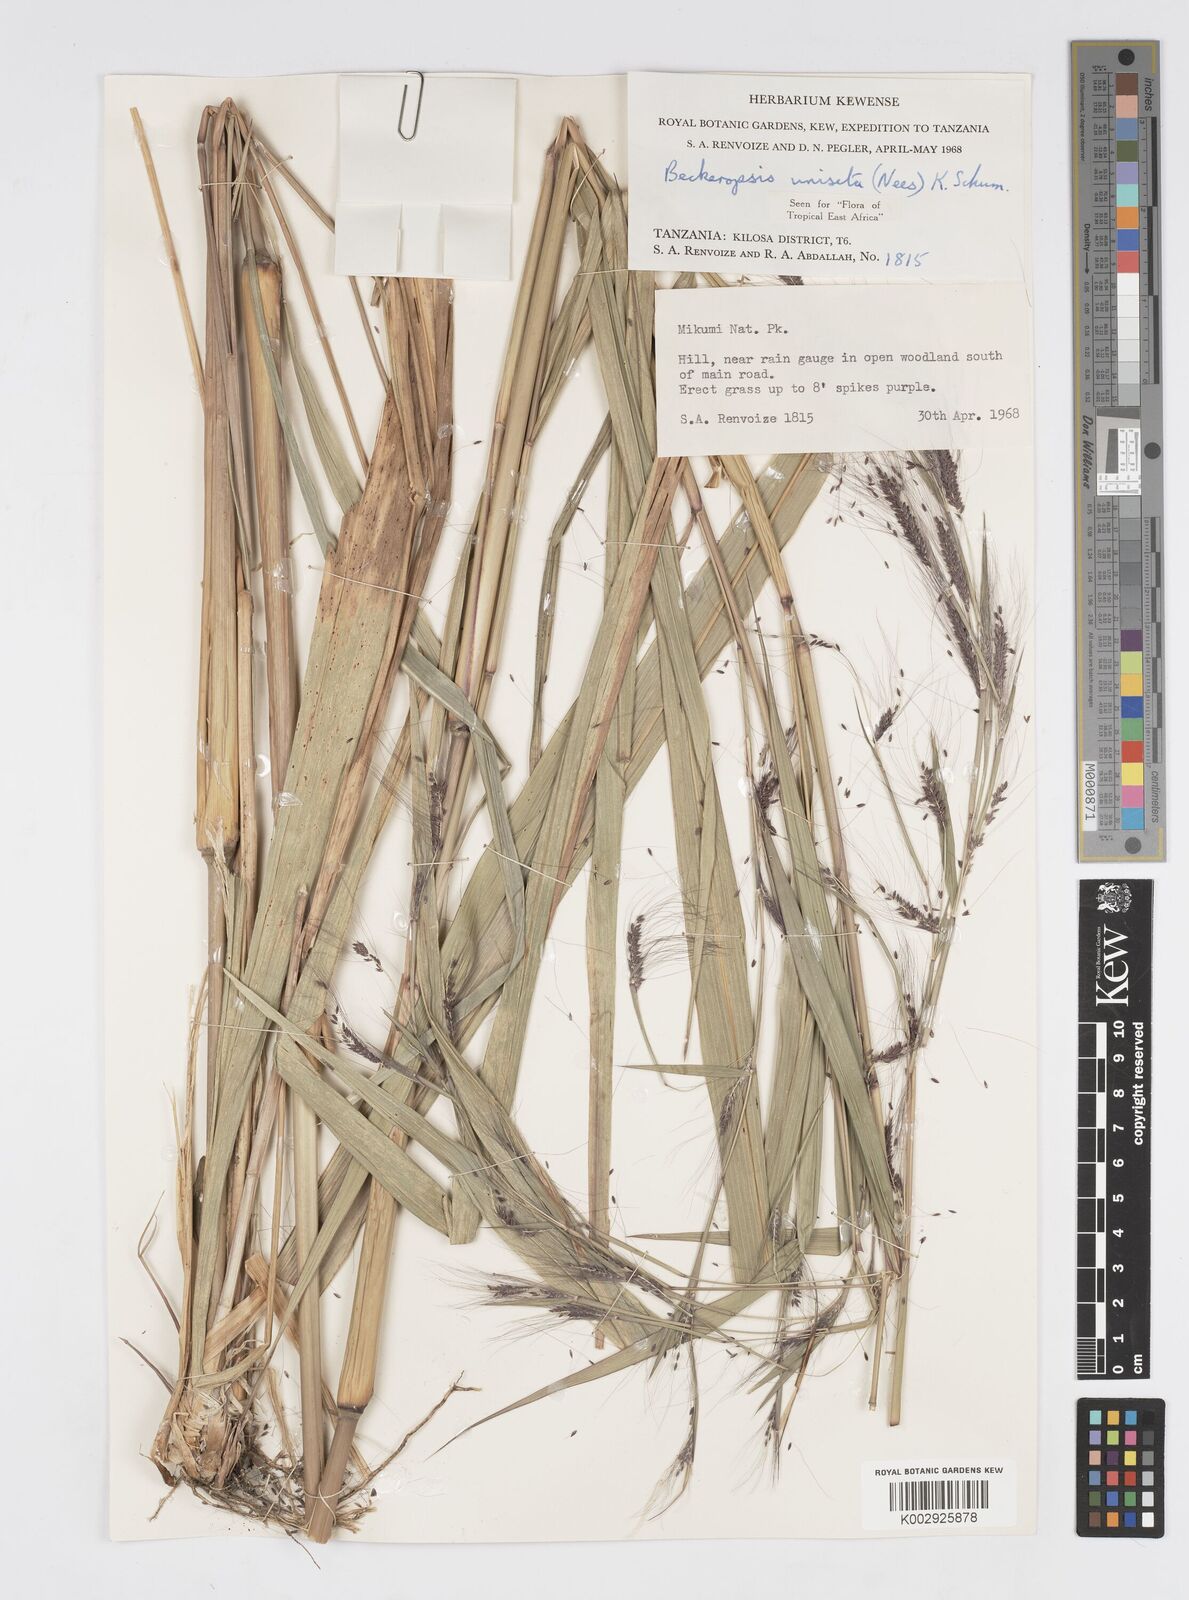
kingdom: Plantae
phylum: Tracheophyta
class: Liliopsida
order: Poales
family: Poaceae
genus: Cenchrus
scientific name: Cenchrus Pennisetum spec
